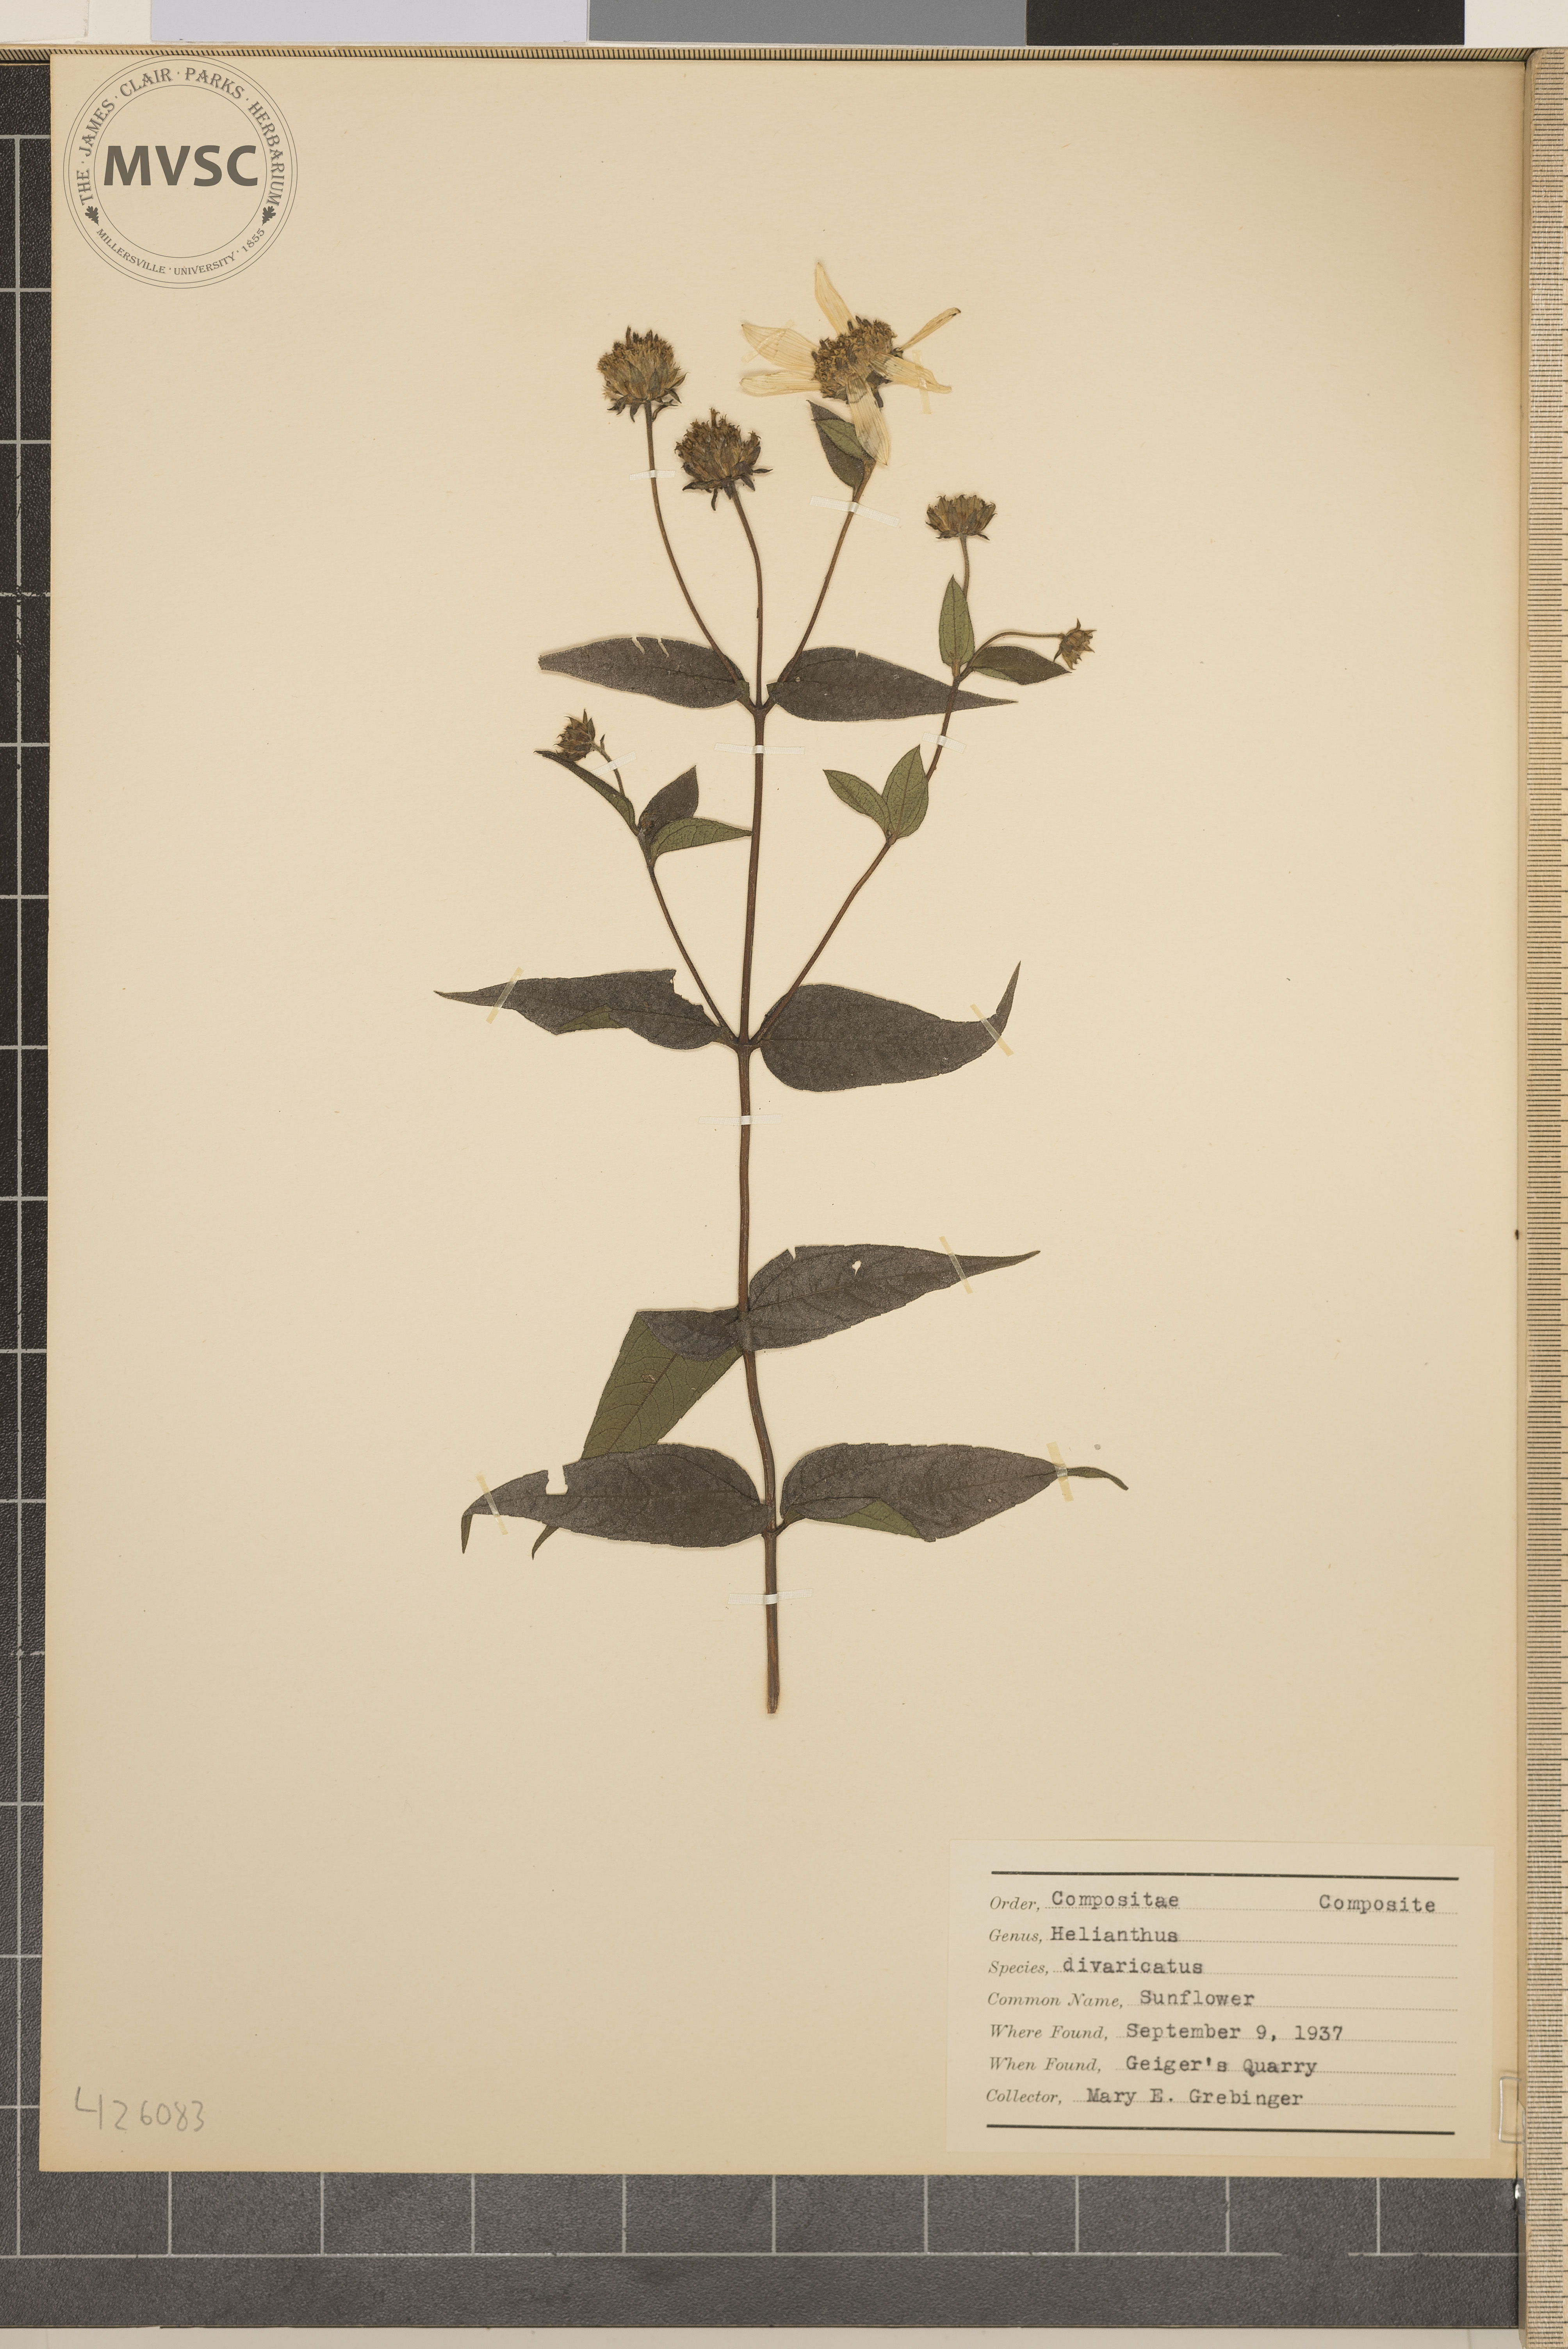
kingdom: Plantae
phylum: Tracheophyta
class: Magnoliopsida
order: Asterales
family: Asteraceae
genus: Helianthus
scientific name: Helianthus divaricatus
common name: Sunflower
